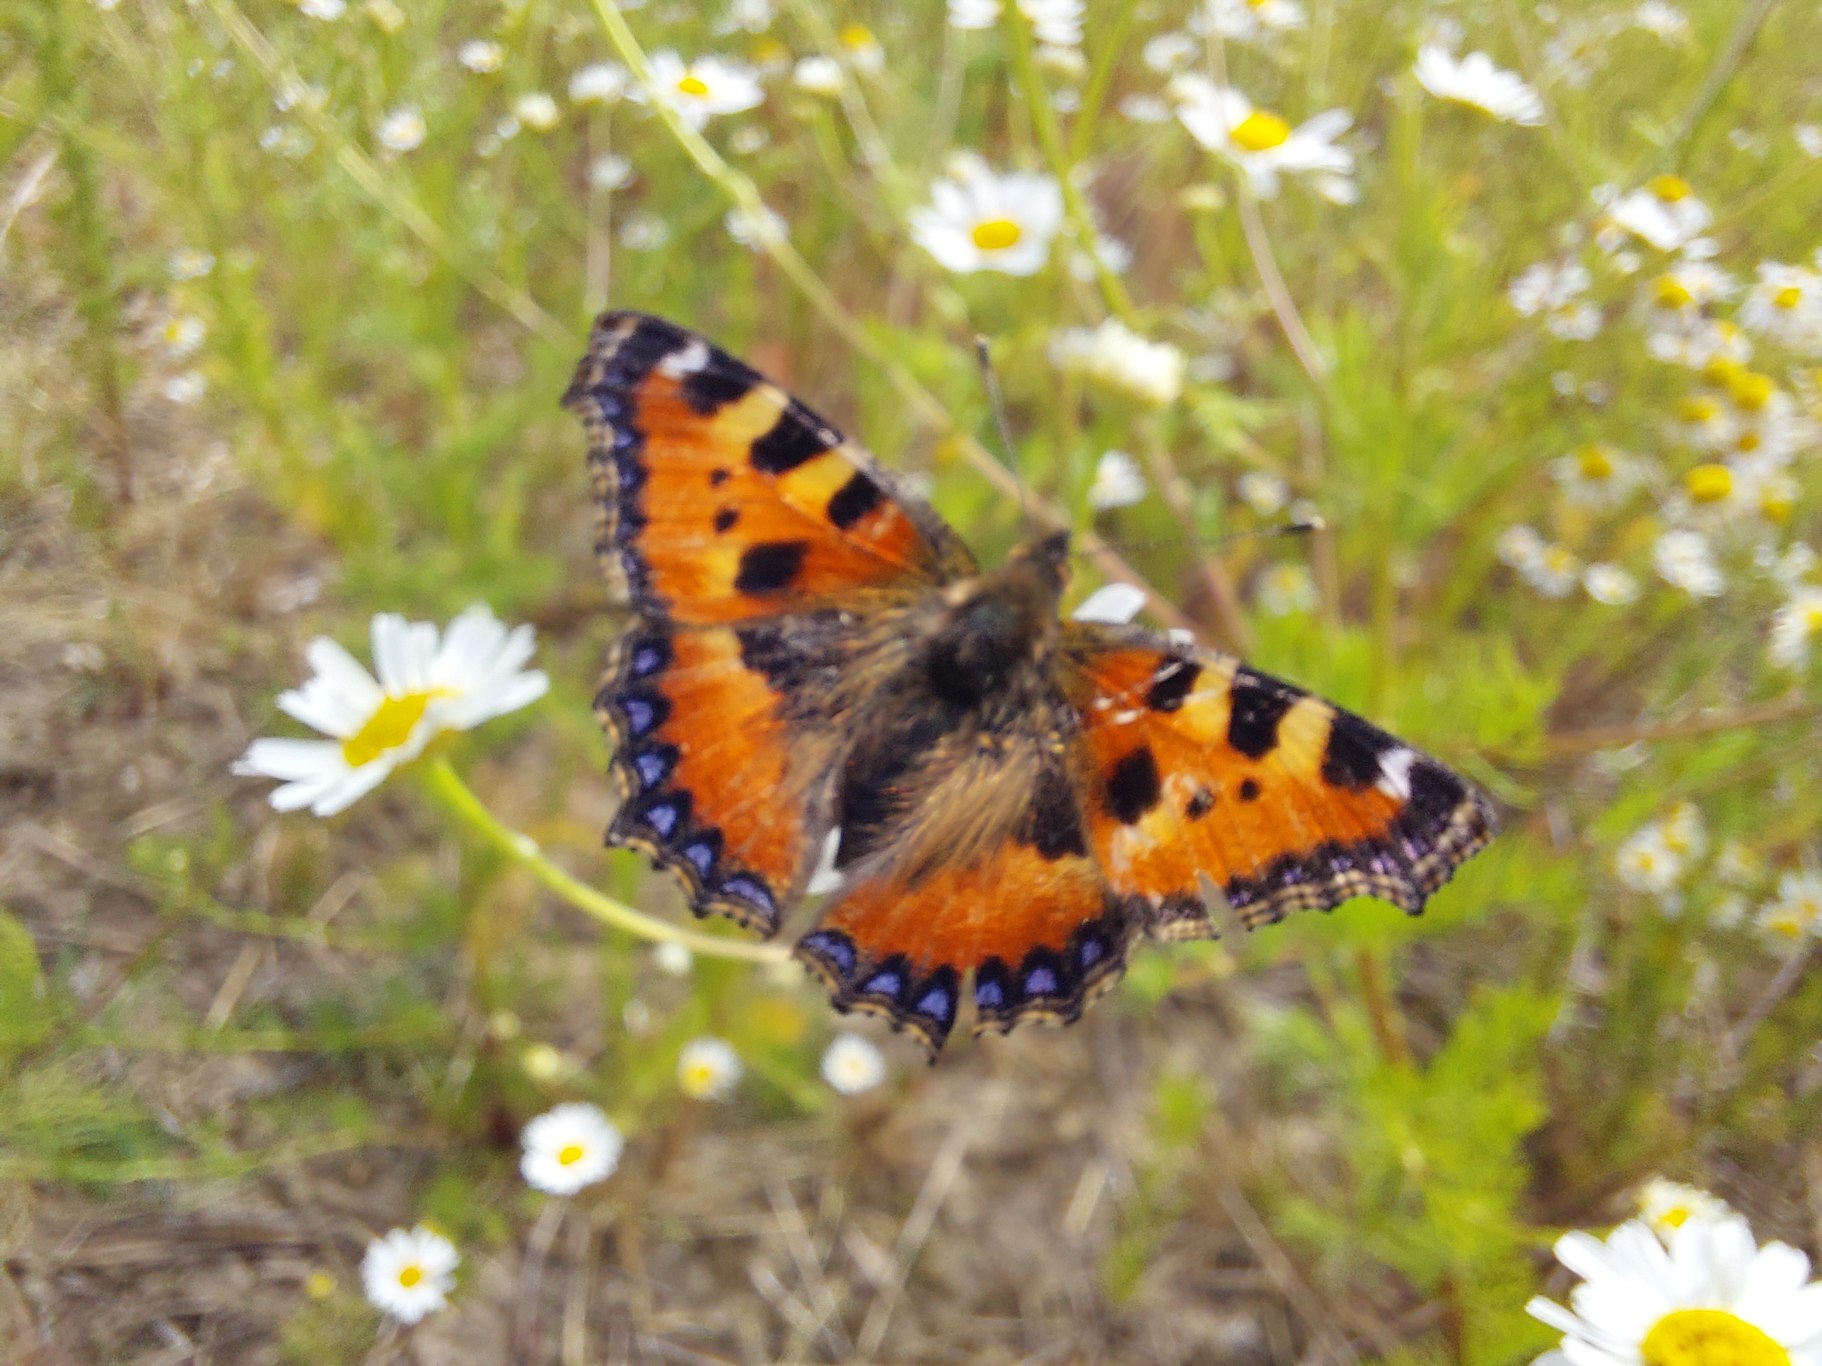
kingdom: Animalia
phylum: Arthropoda
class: Insecta
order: Lepidoptera
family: Nymphalidae
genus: Aglais
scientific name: Aglais urticae
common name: Nældens takvinge
